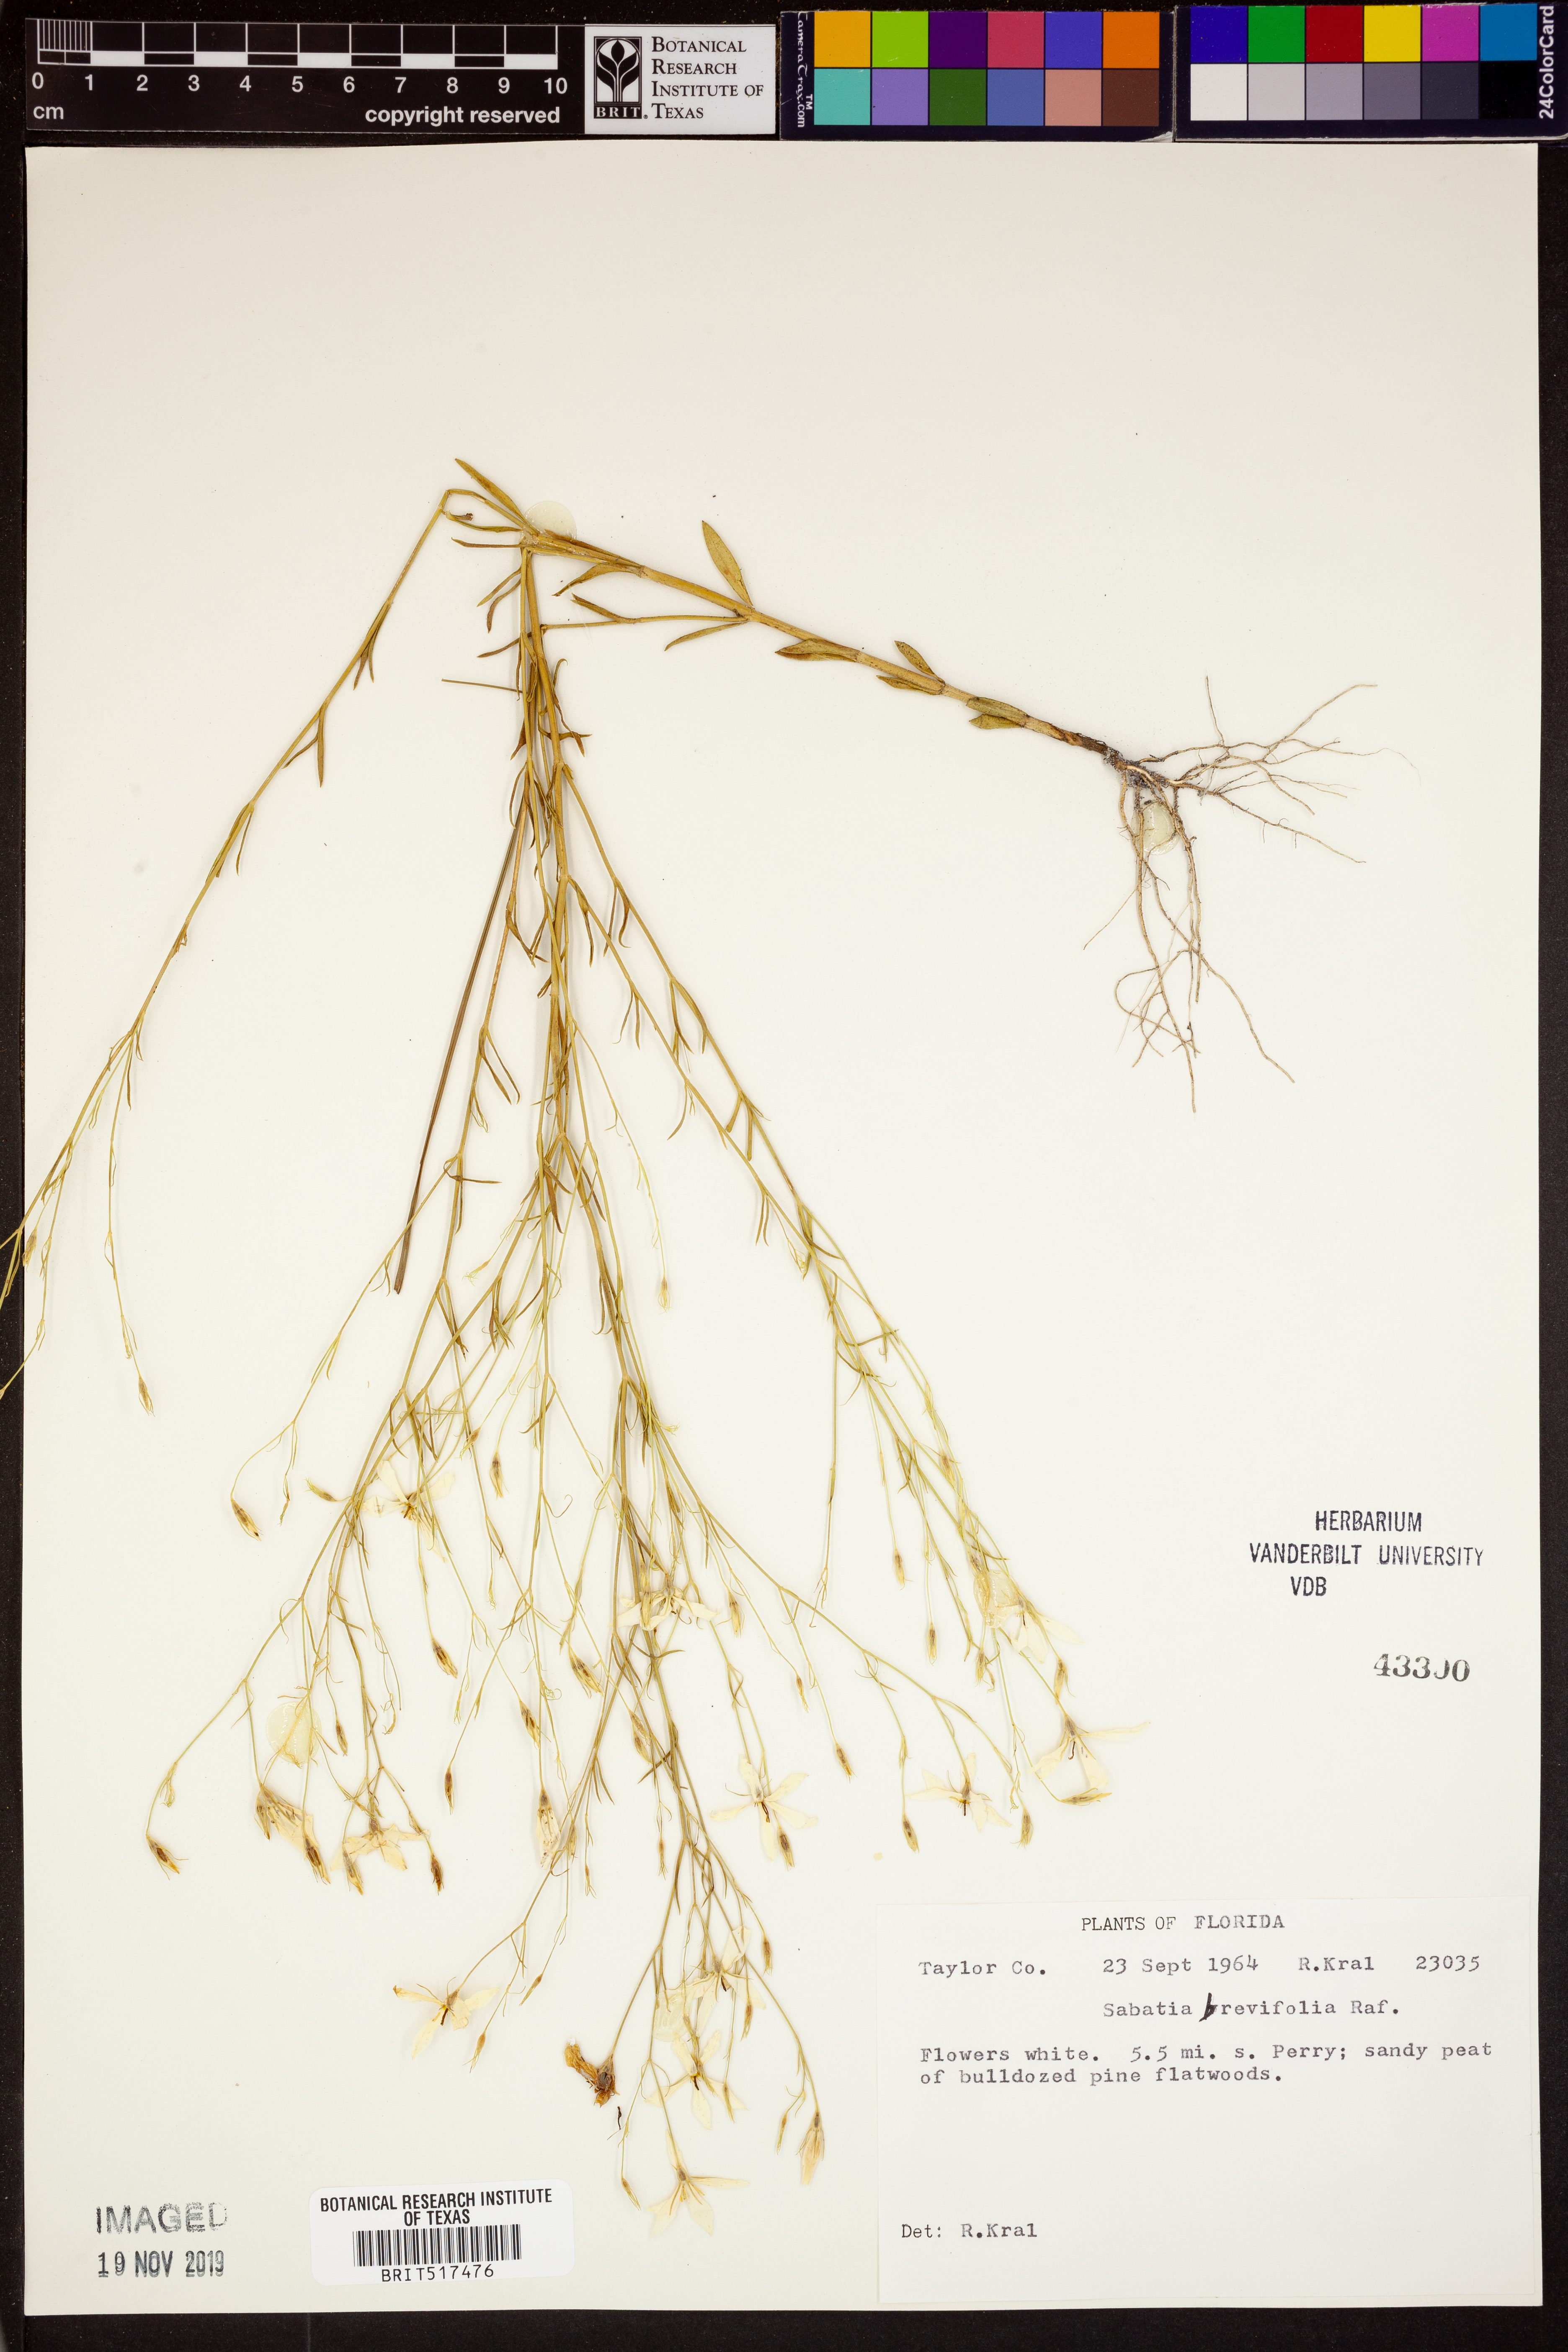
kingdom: Plantae
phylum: Tracheophyta
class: Magnoliopsida
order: Gentianales
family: Gentianaceae
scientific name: Gentianaceae
